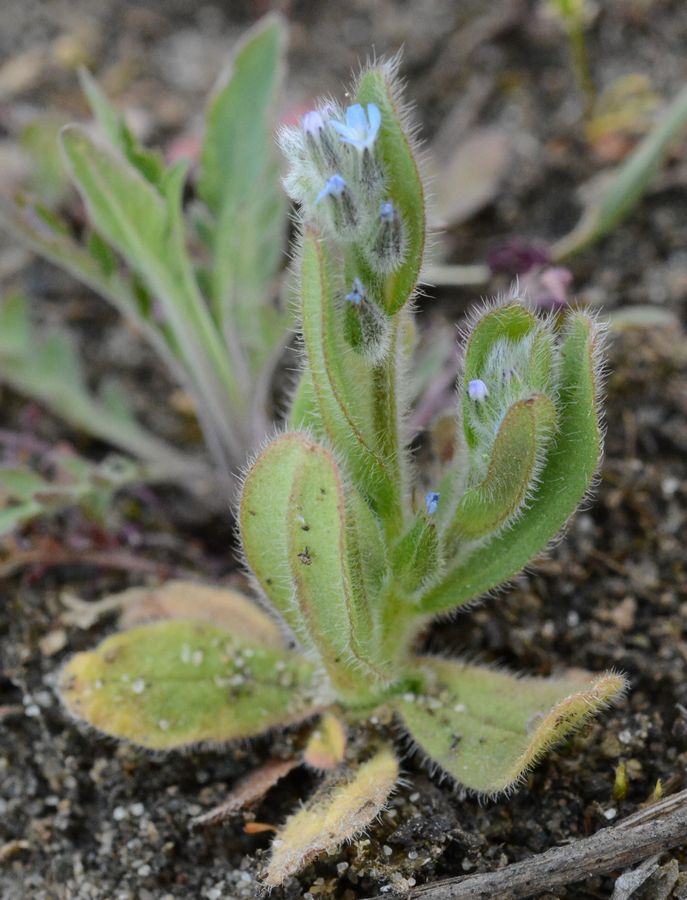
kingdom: Plantae
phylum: Tracheophyta
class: Magnoliopsida
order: Boraginales
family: Boraginaceae
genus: Myosotis
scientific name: Myosotis
